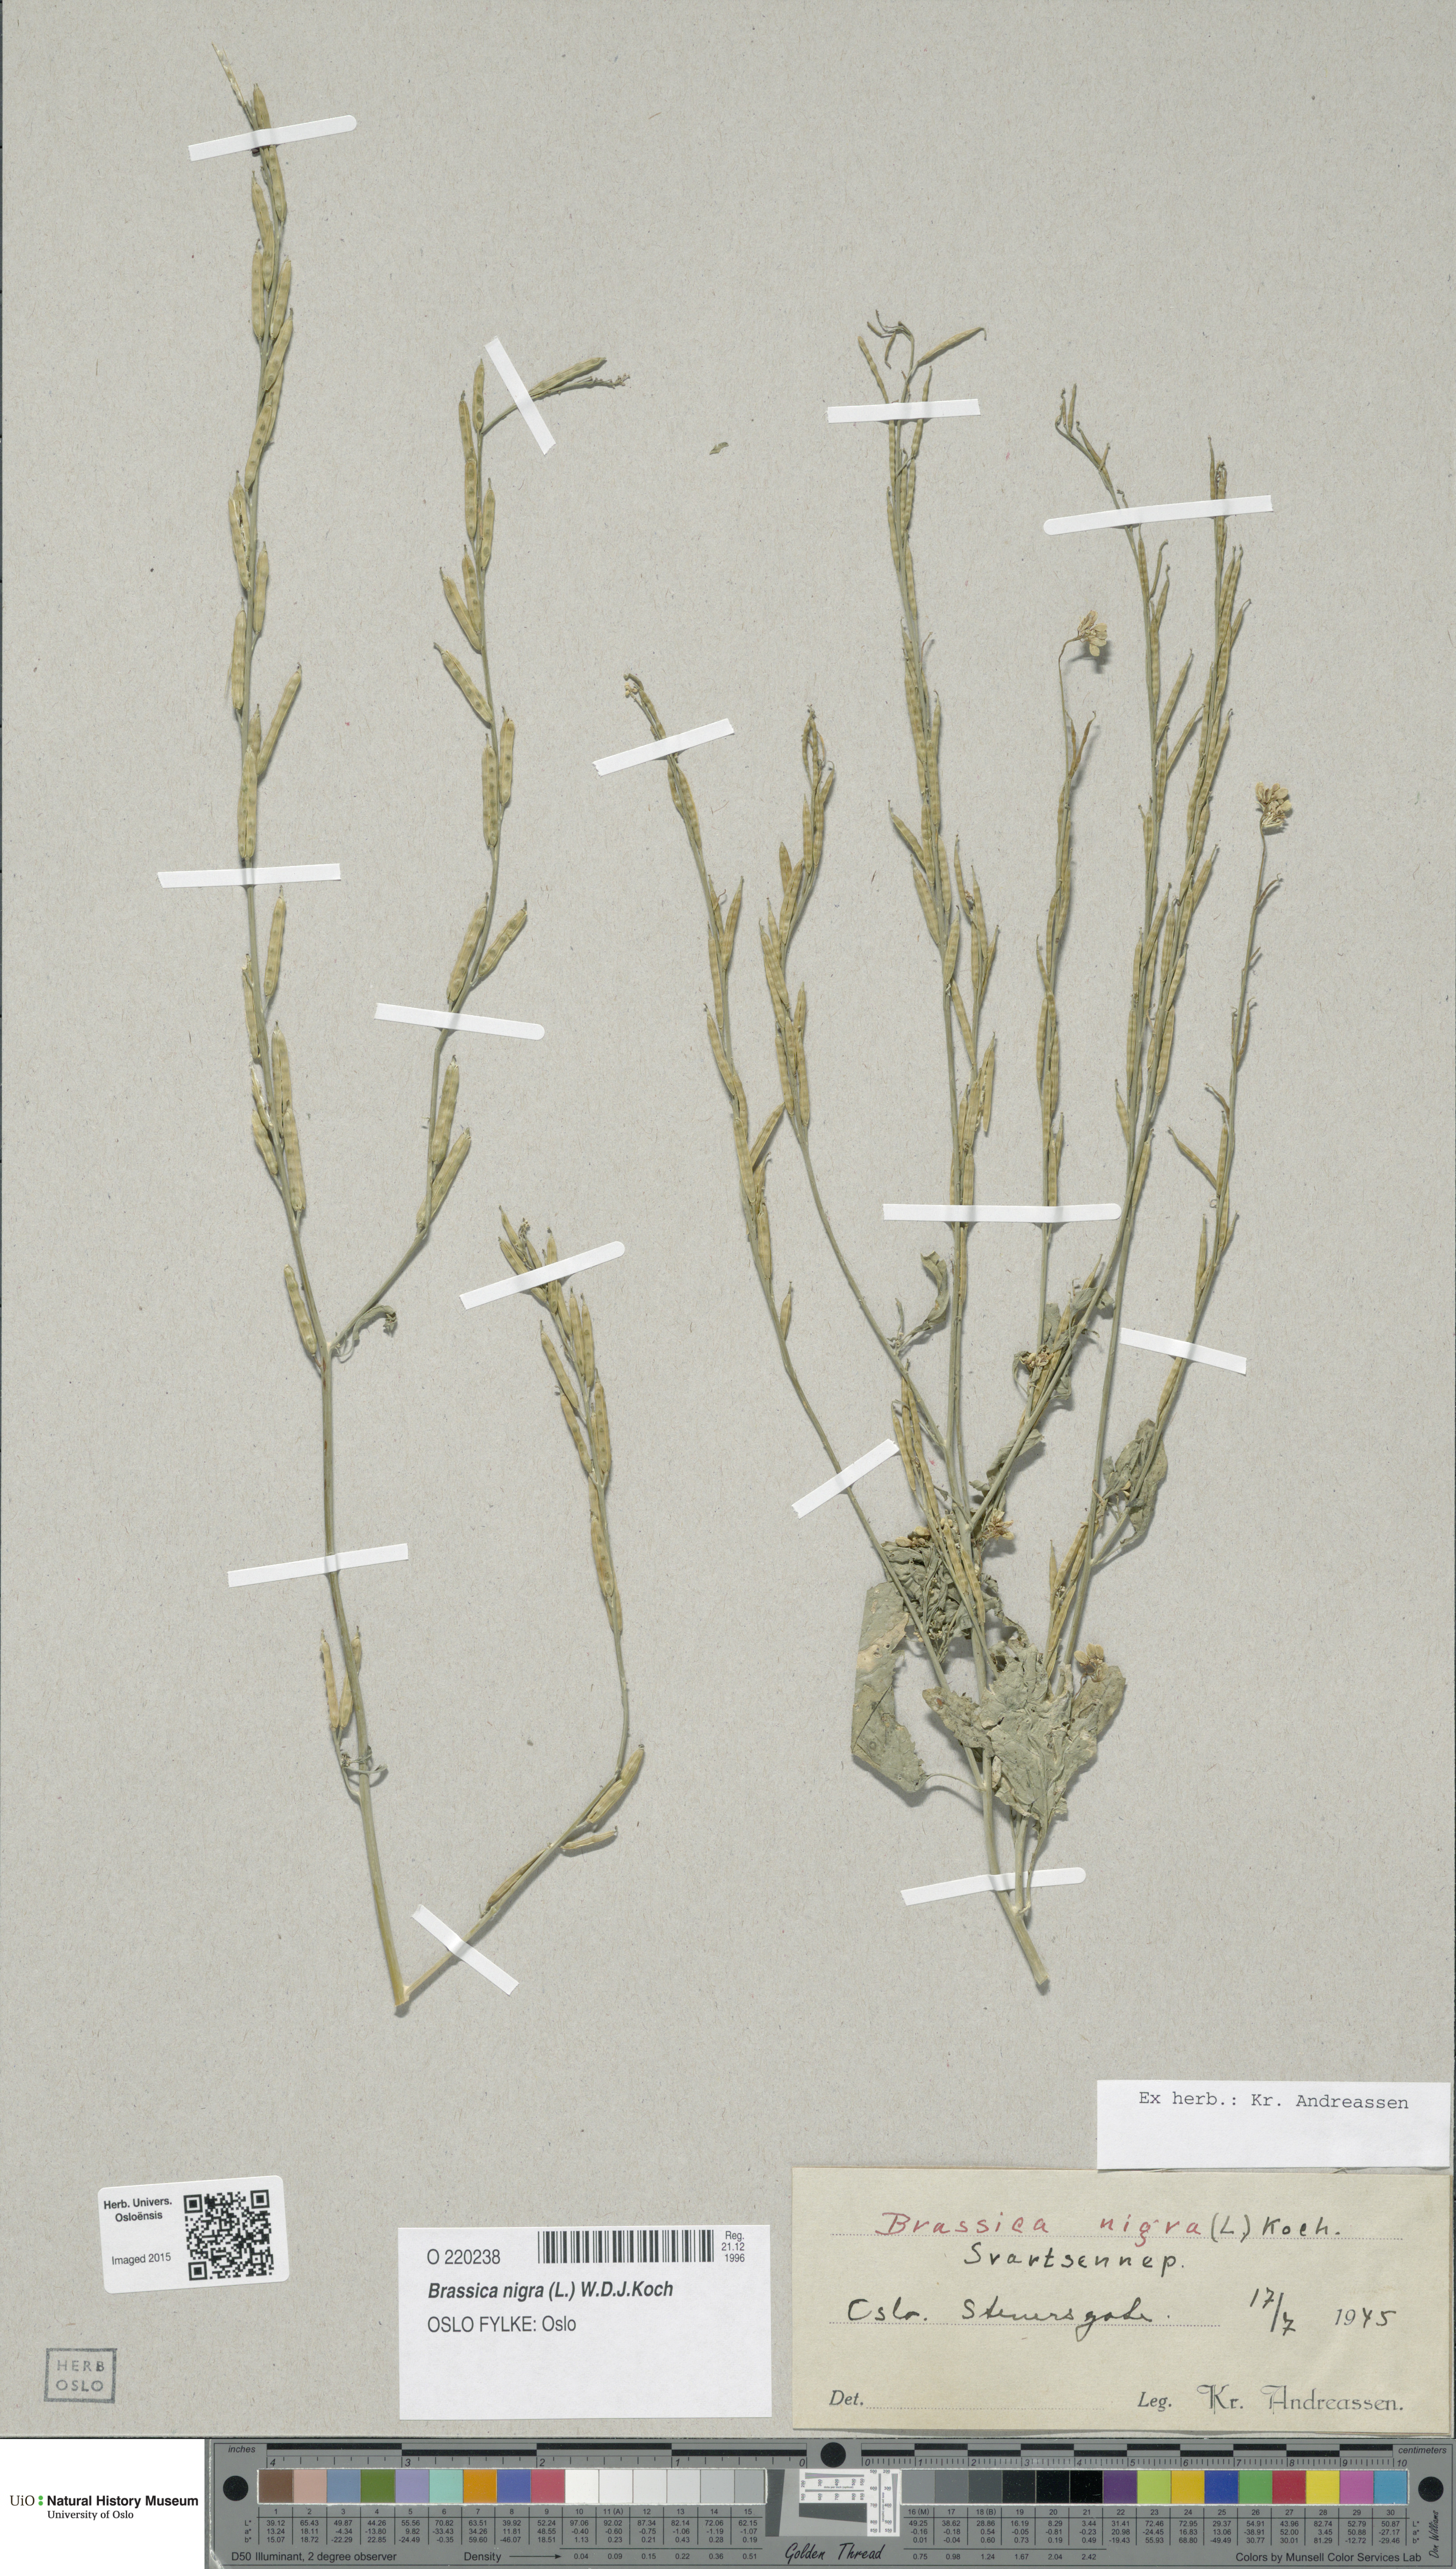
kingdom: Plantae
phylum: Tracheophyta
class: Magnoliopsida
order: Brassicales
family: Brassicaceae
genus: Brassica
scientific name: Brassica nigra
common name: Black mustard
